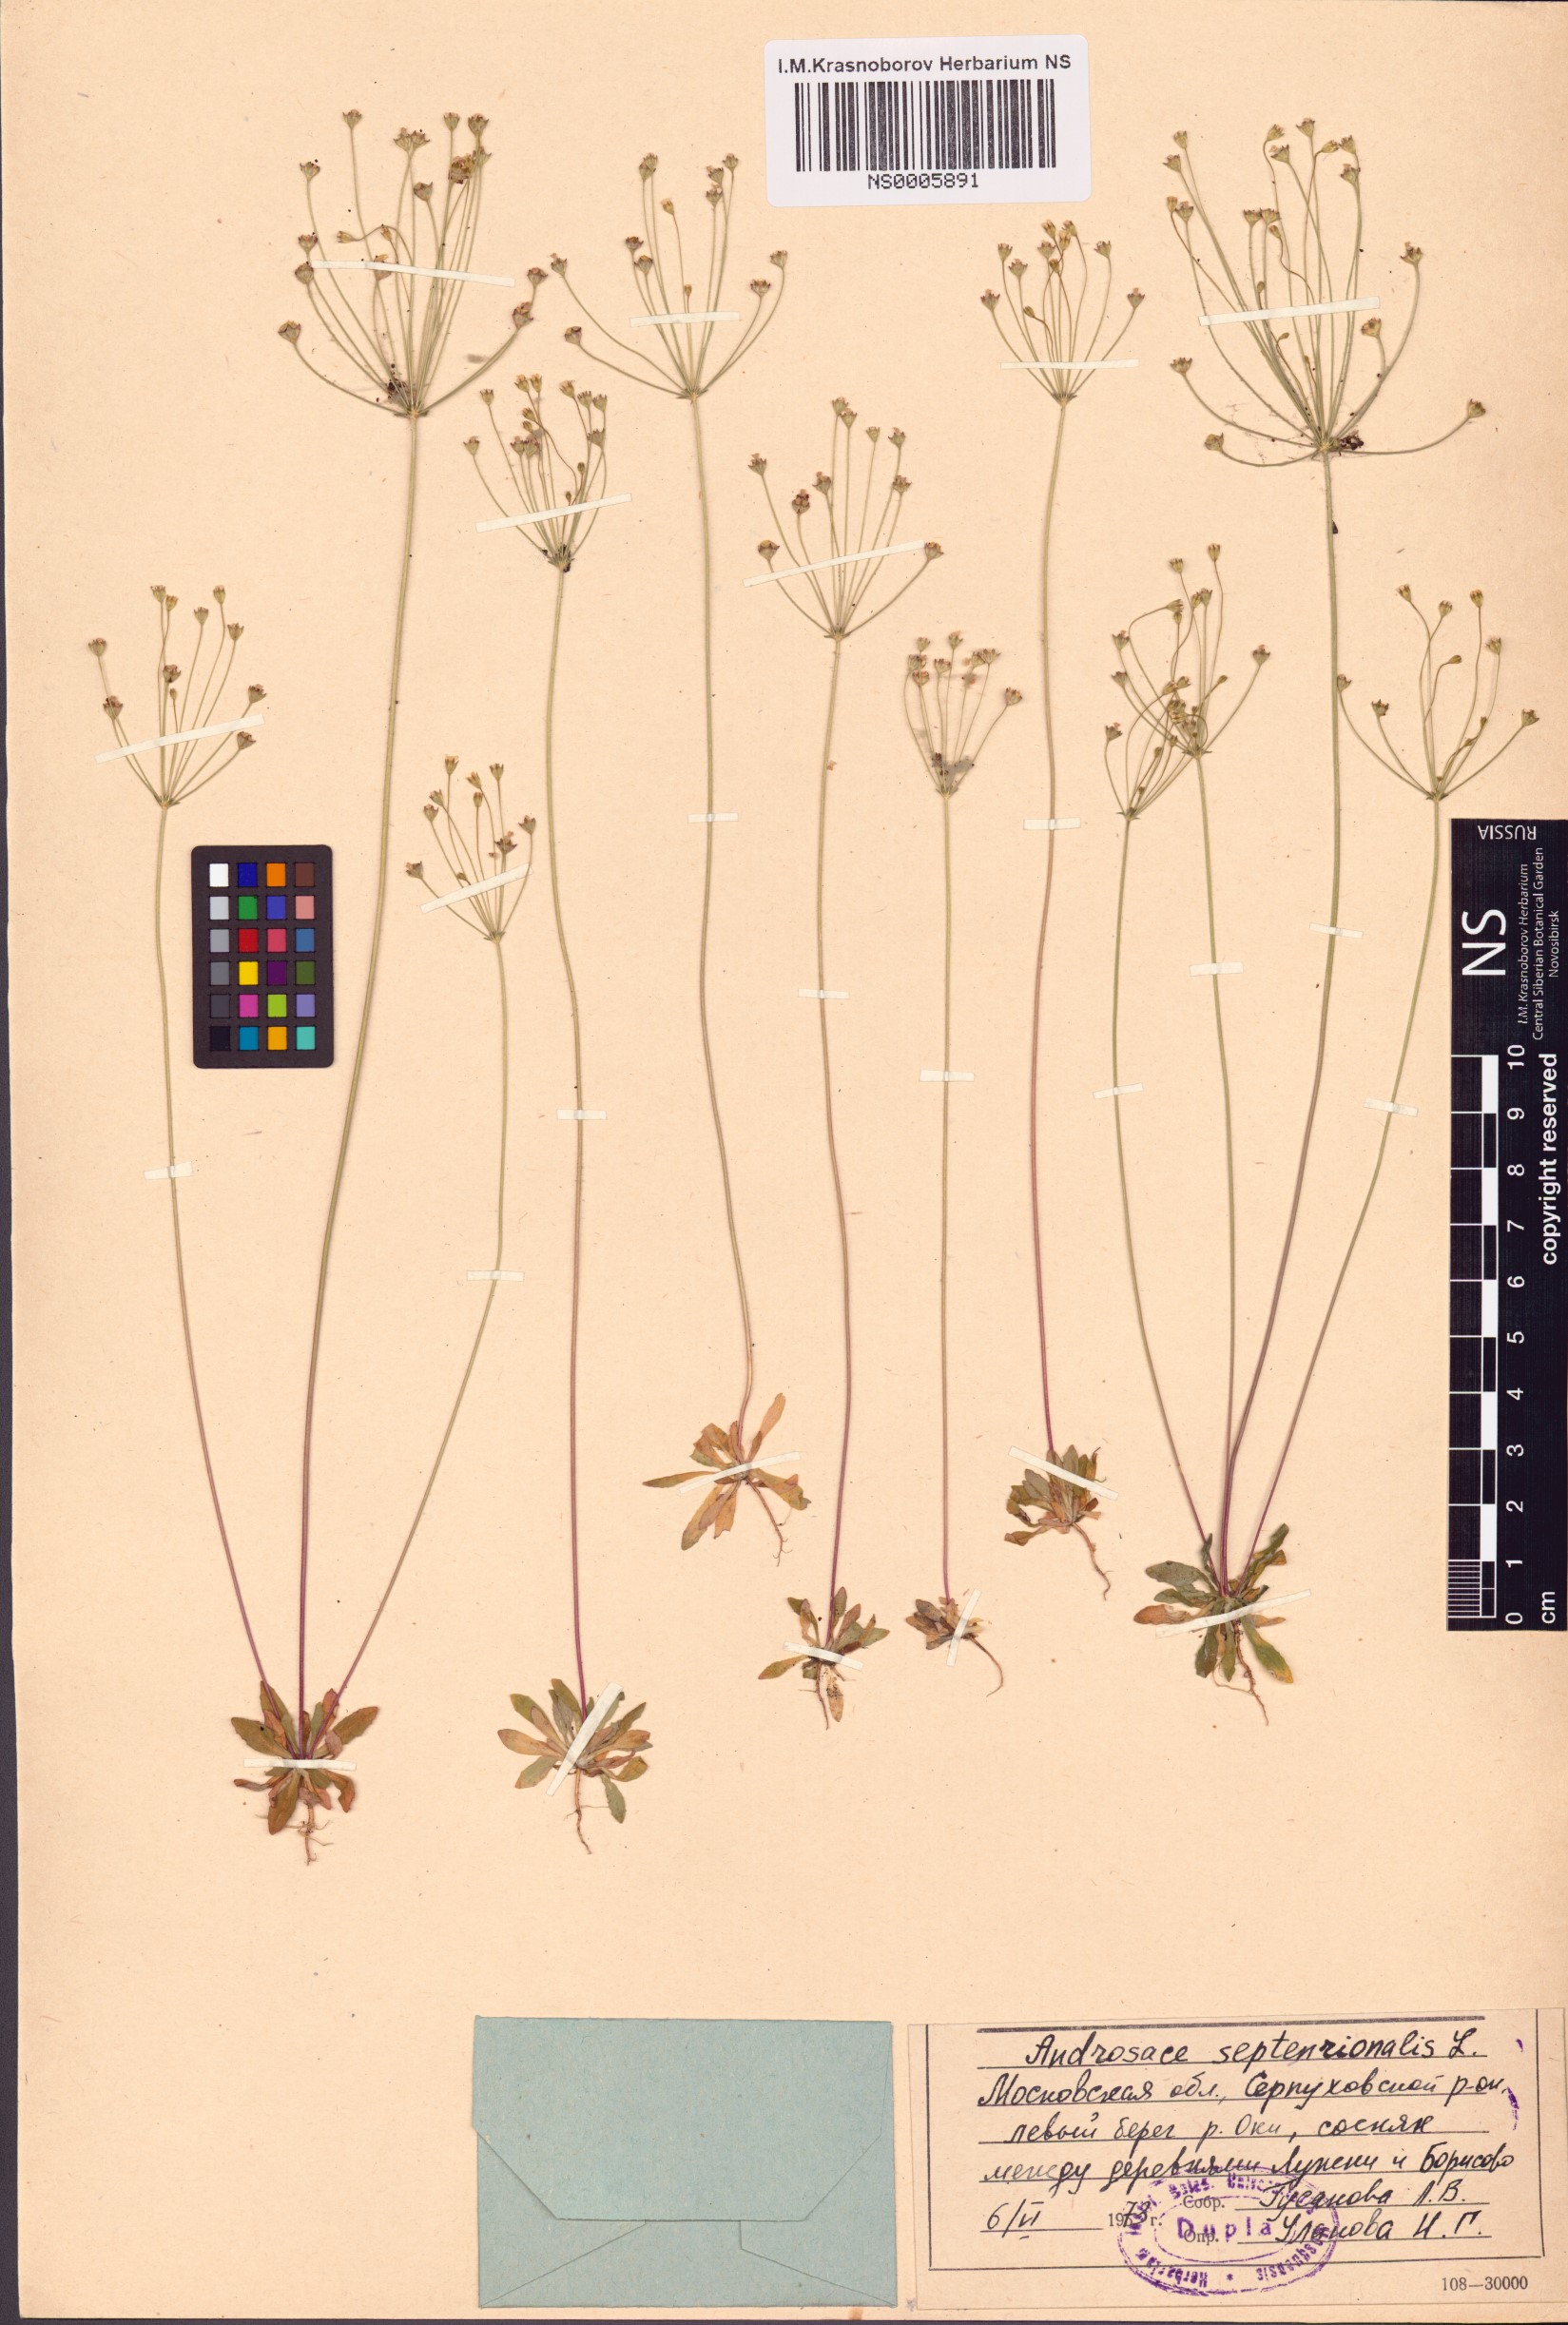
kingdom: Plantae
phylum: Tracheophyta
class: Magnoliopsida
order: Ericales
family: Primulaceae
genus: Androsace
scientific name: Androsace septentrionalis
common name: Hairy northern fairy-candelabra
